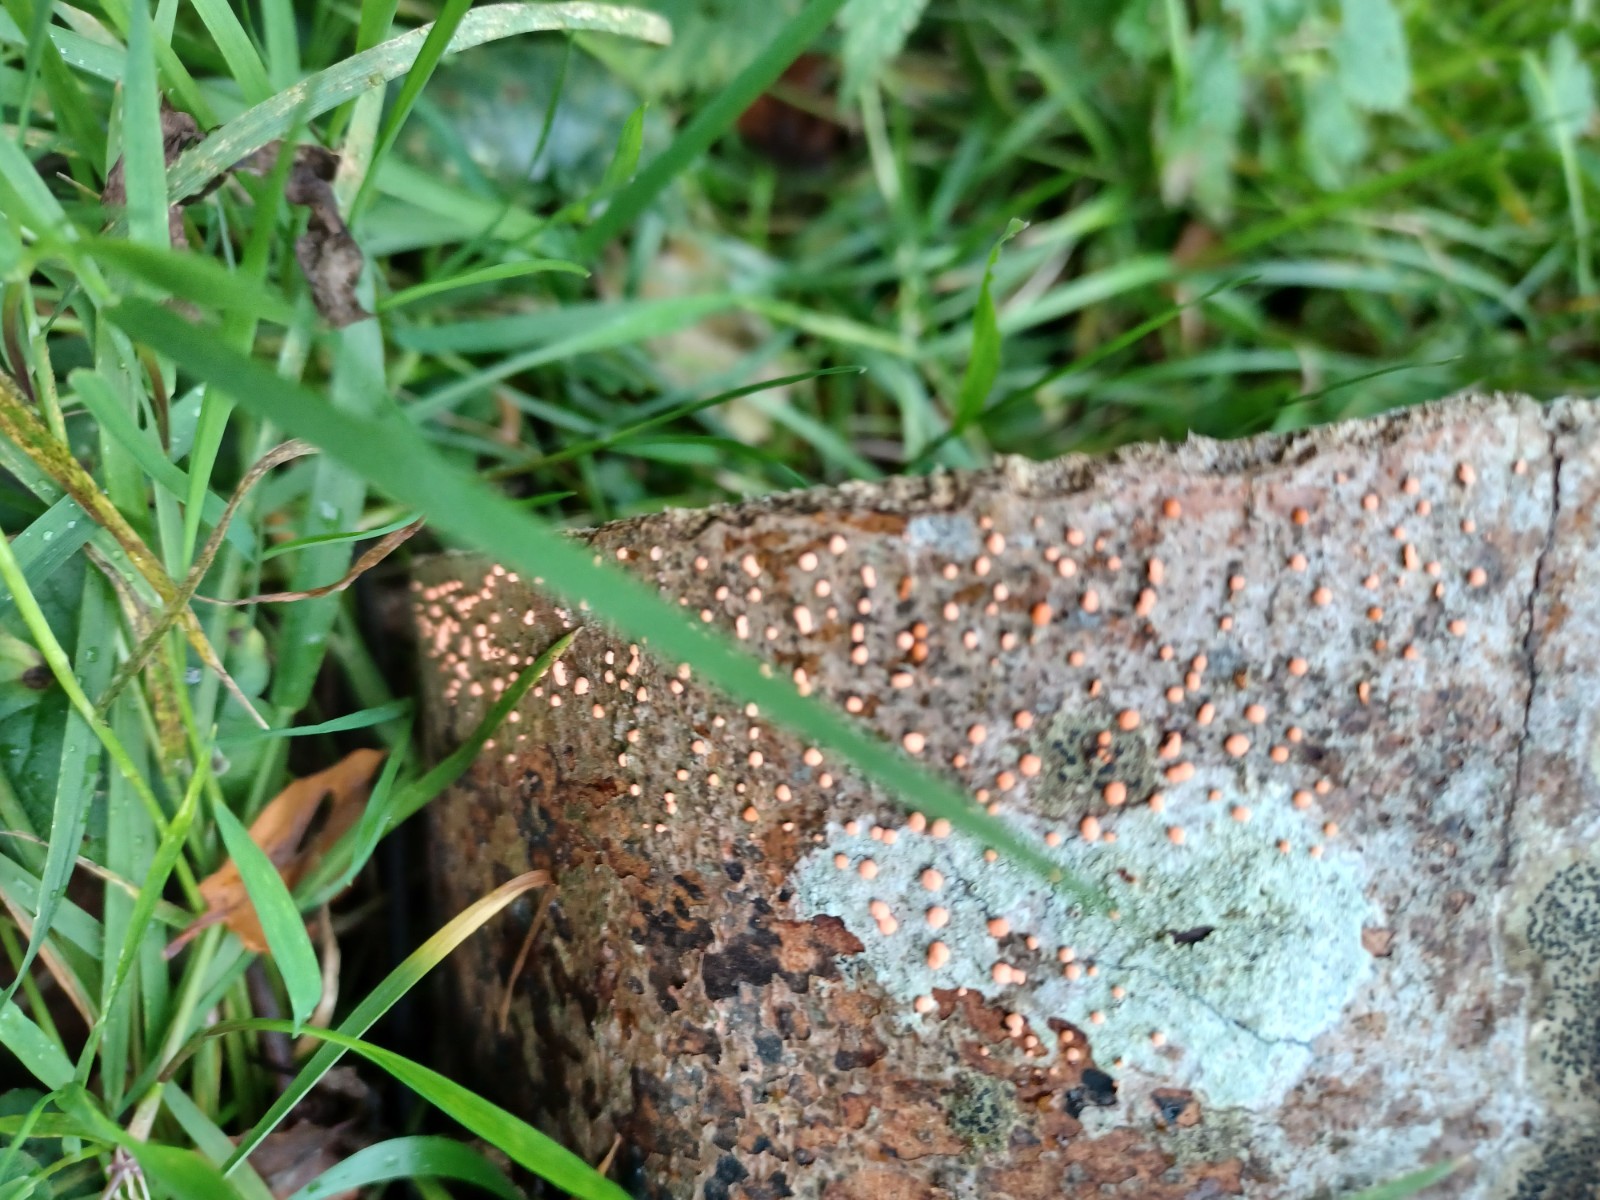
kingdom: Fungi
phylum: Ascomycota
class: Sordariomycetes
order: Hypocreales
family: Nectriaceae
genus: Nectria
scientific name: Nectria
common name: cinnobersvamp
